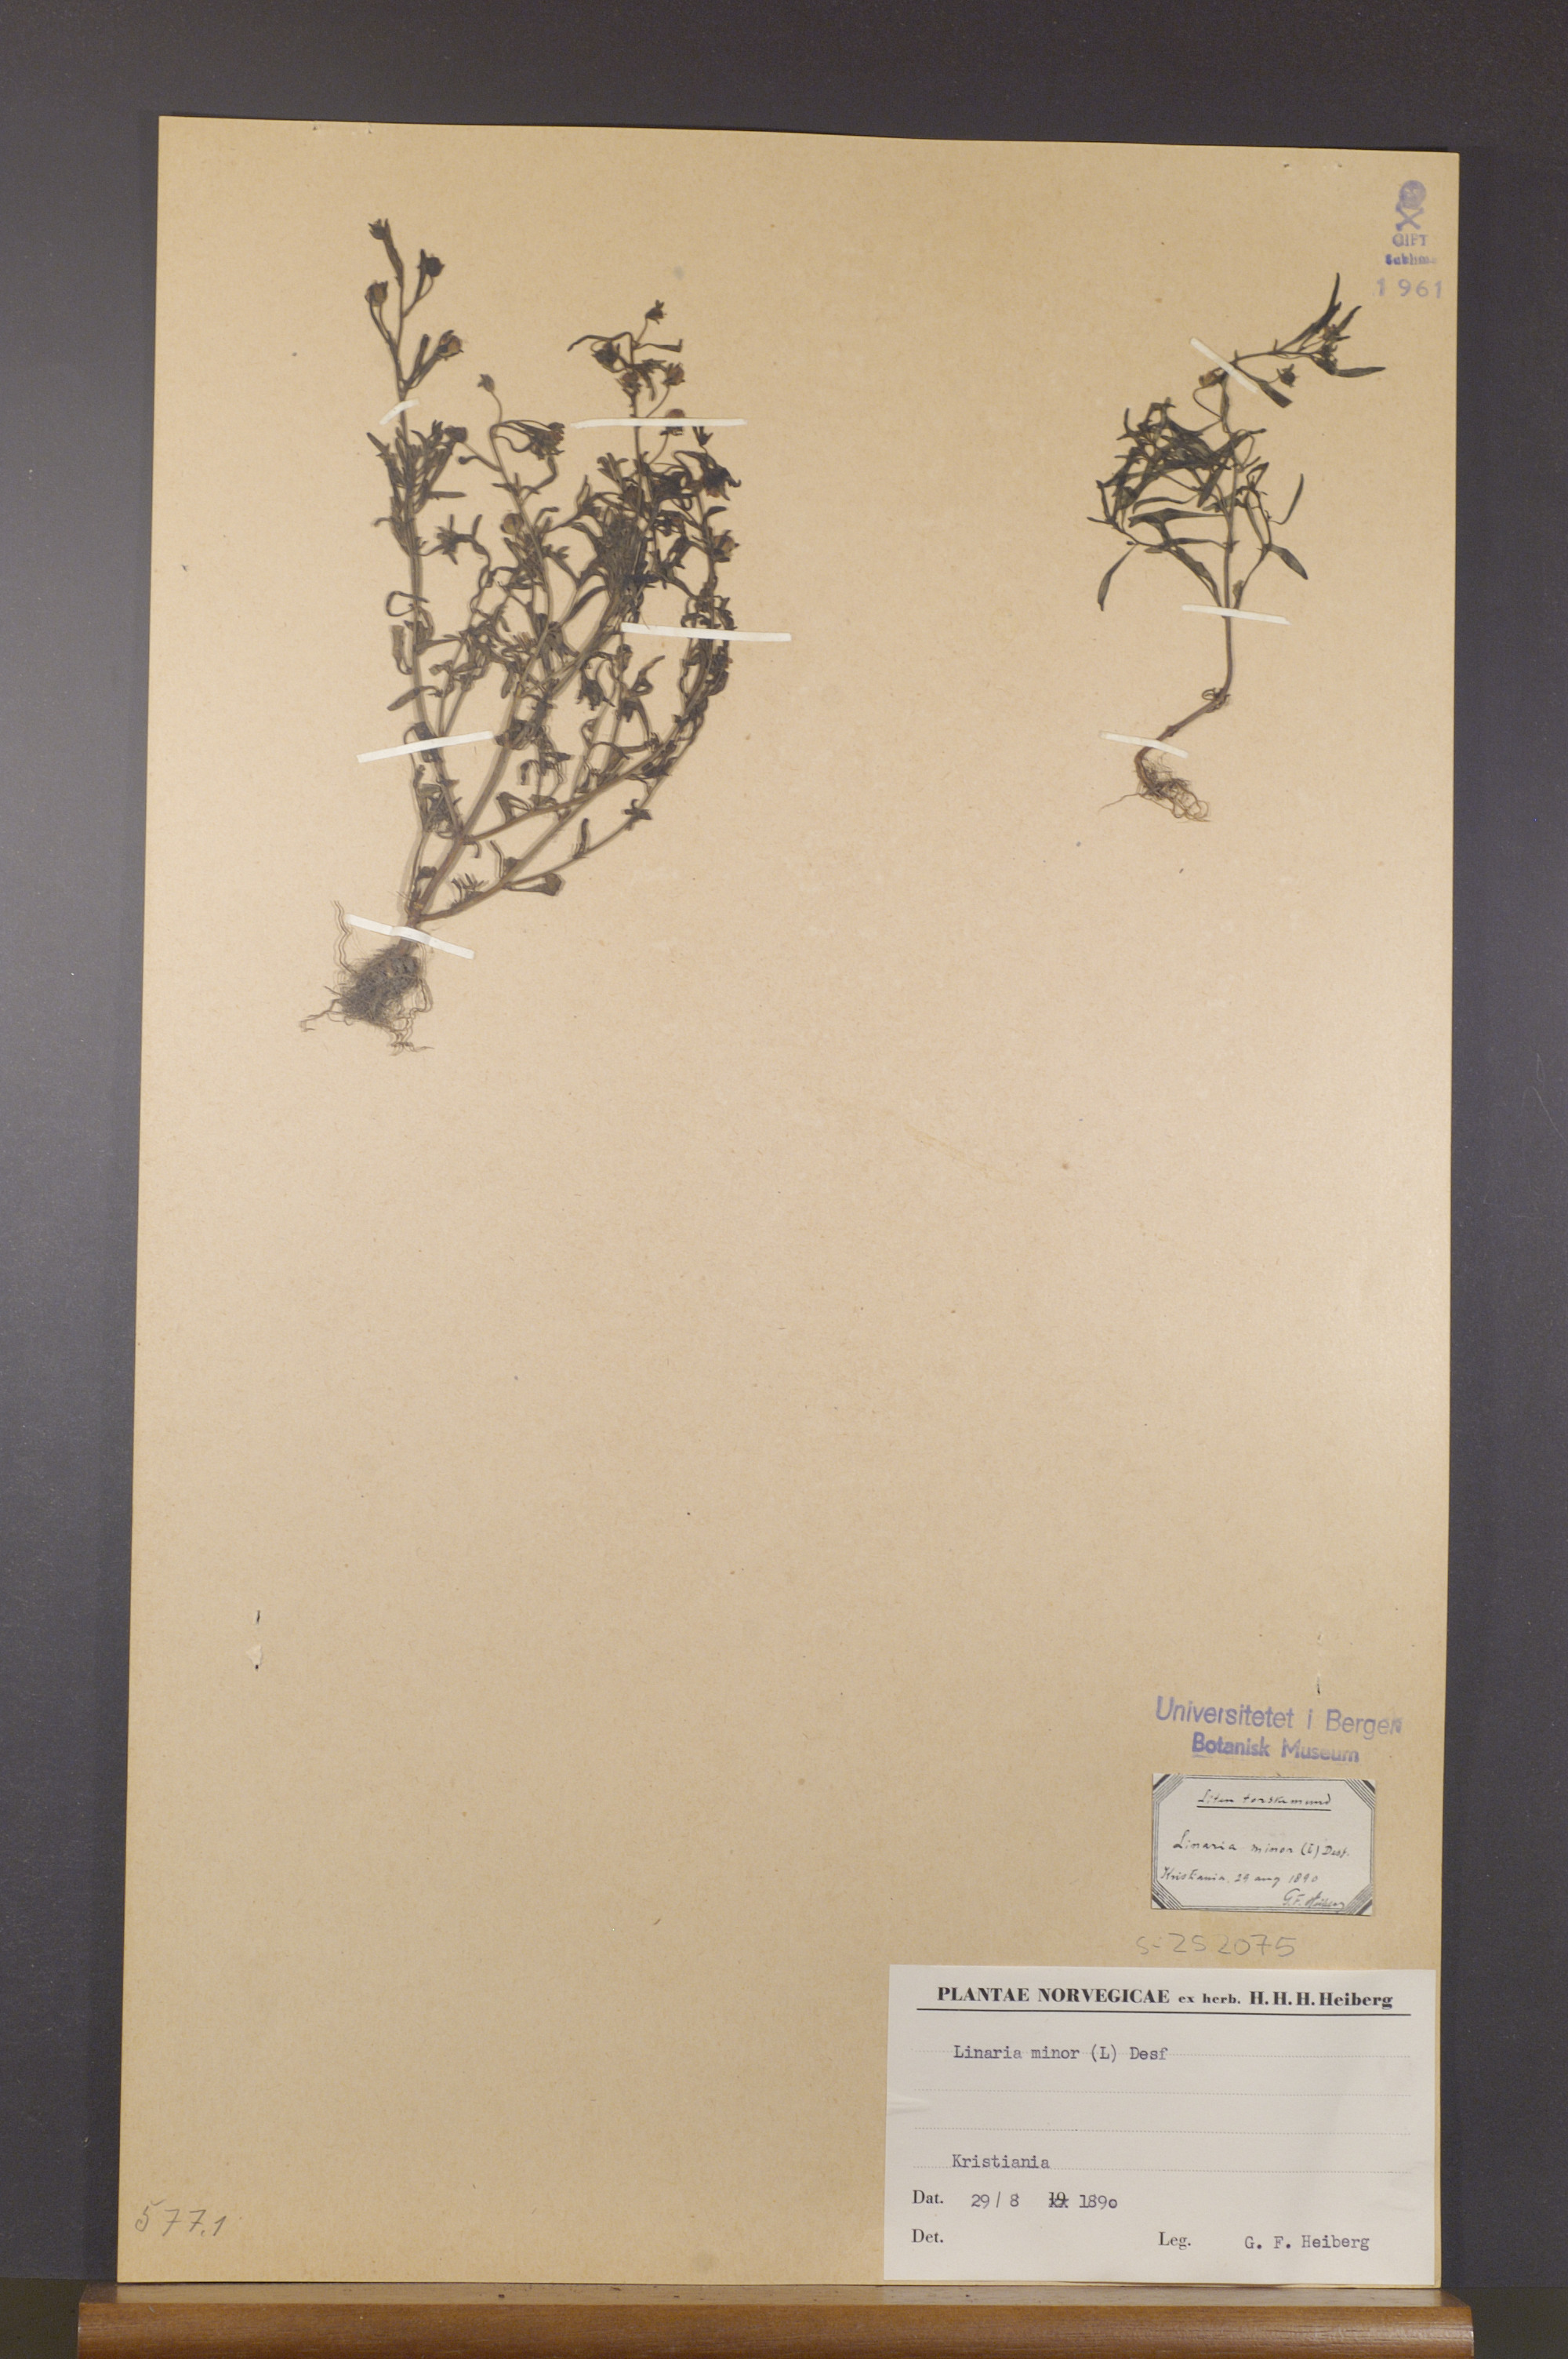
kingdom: Plantae
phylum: Tracheophyta
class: Magnoliopsida
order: Lamiales
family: Plantaginaceae
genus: Chaenorhinum
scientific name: Chaenorhinum minus
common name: Dwarf snapdragon
